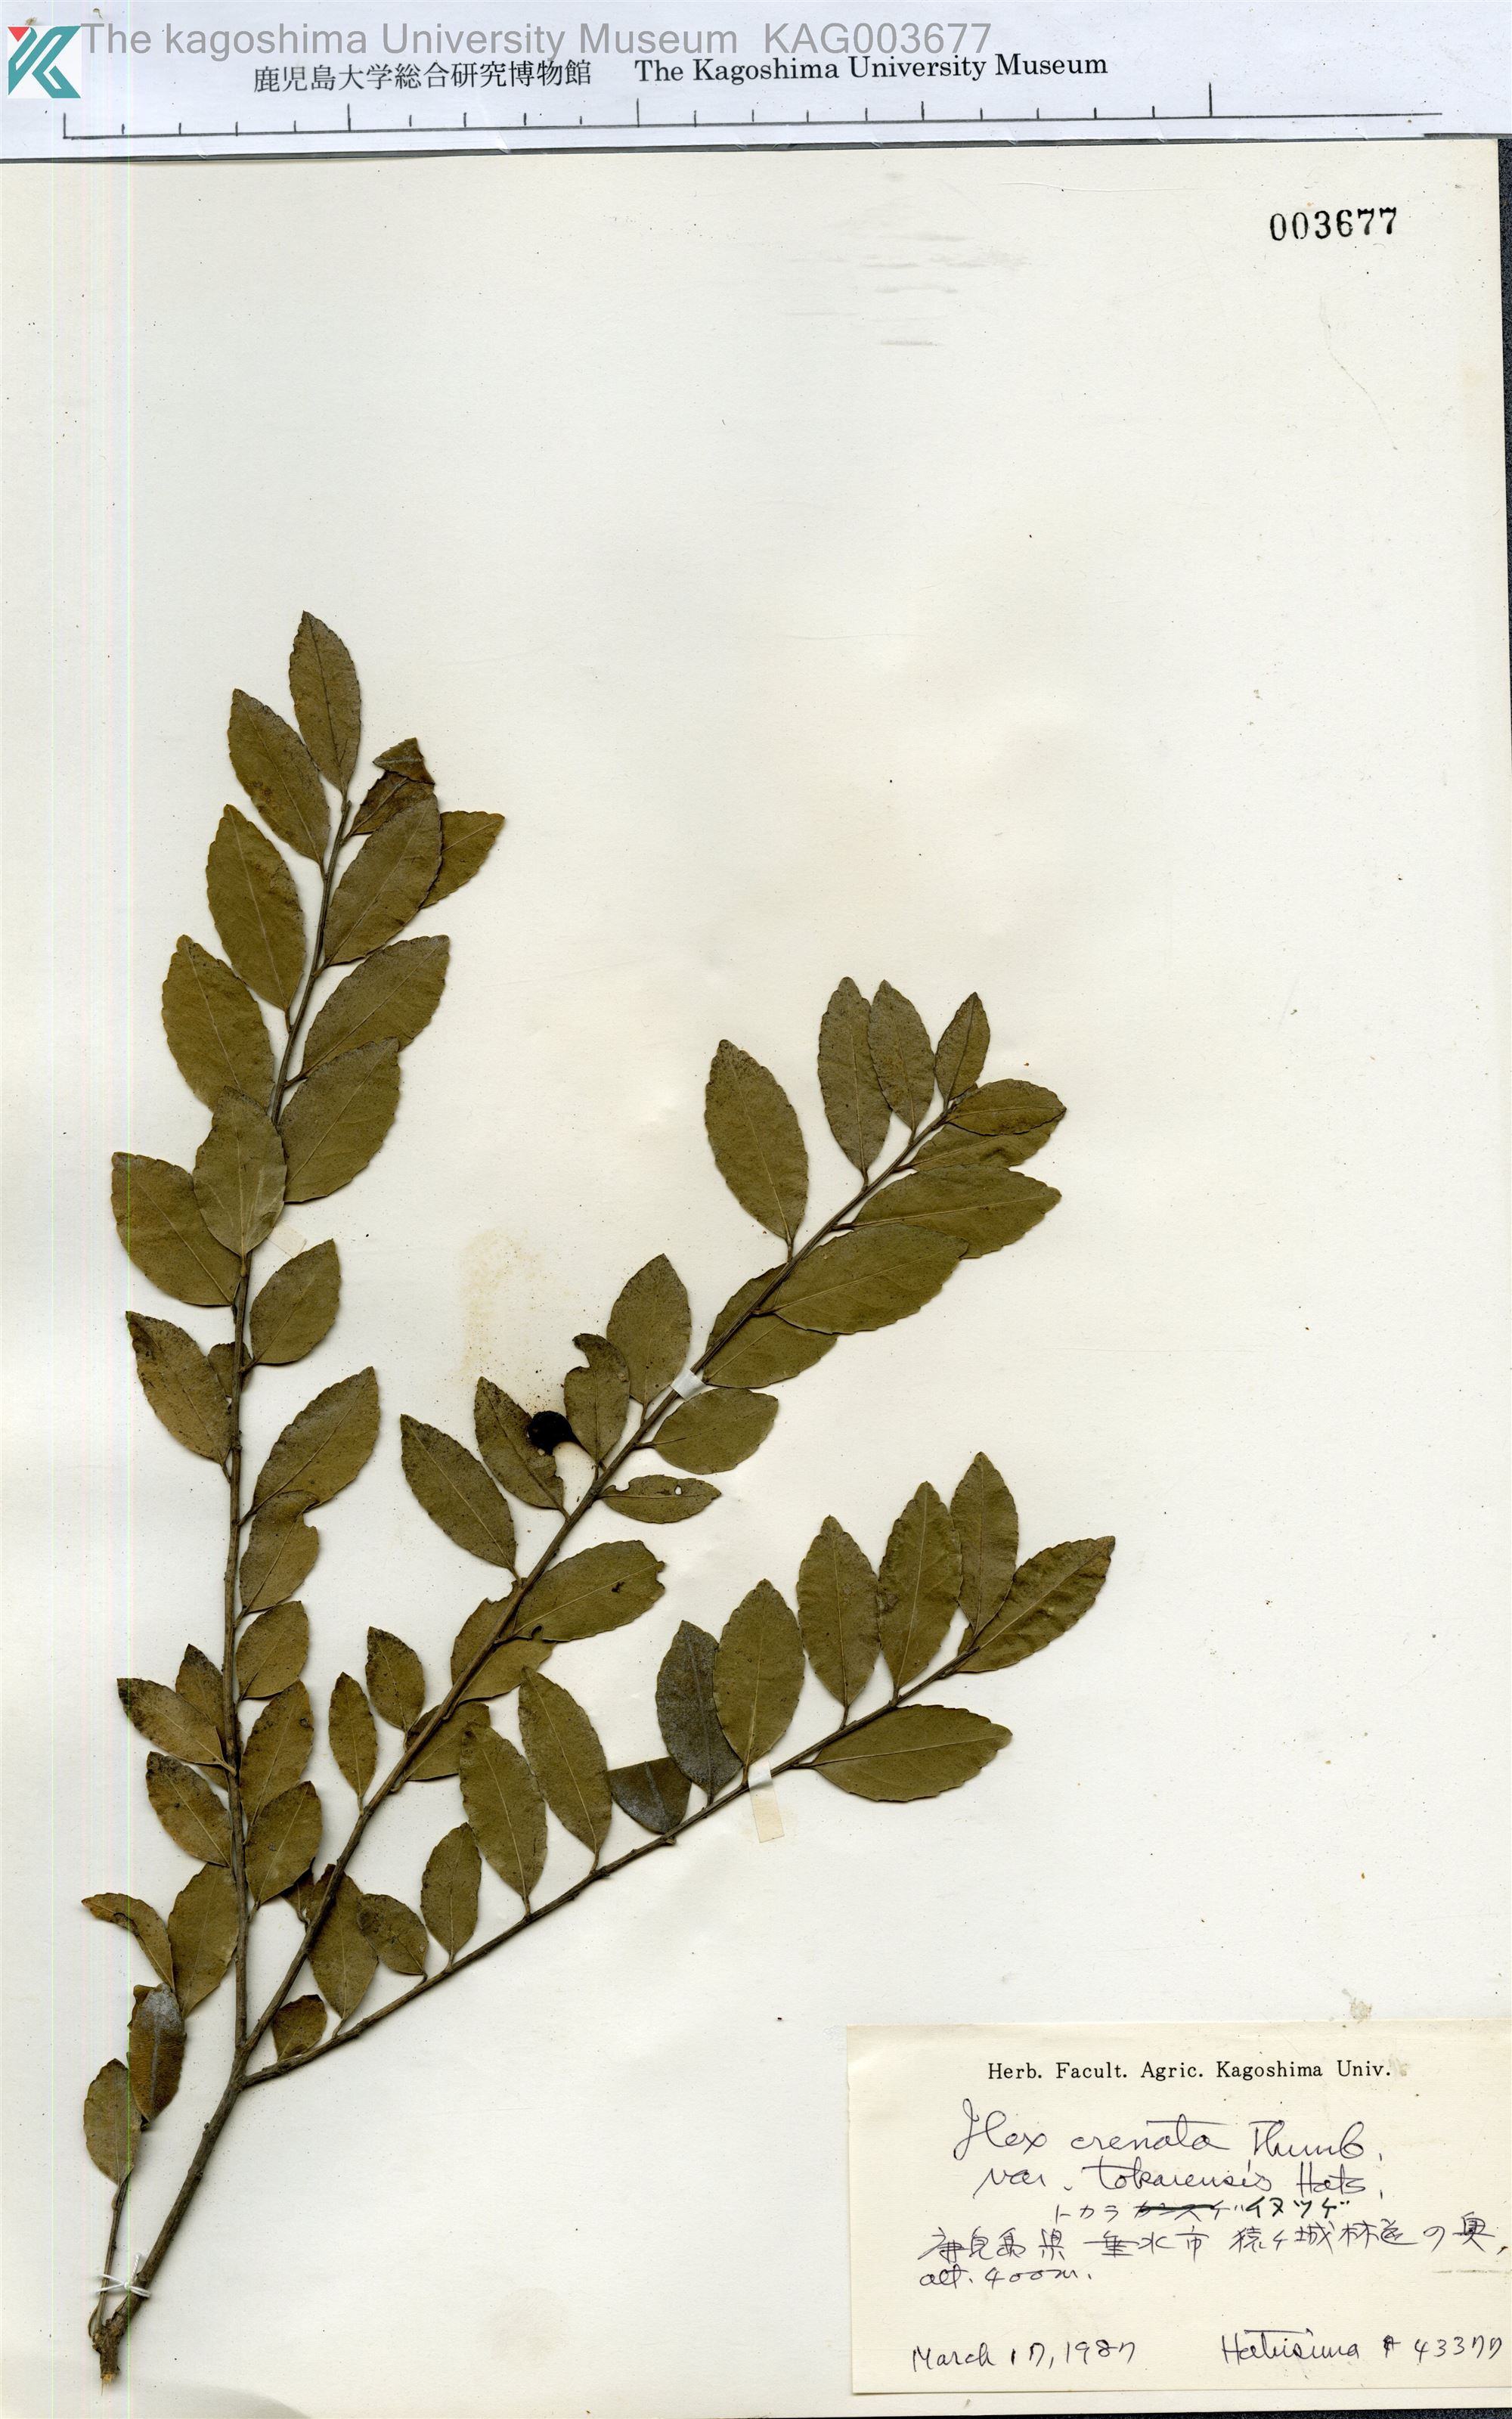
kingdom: Plantae
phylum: Tracheophyta
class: Magnoliopsida
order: Aquifoliales
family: Aquifoliaceae
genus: Ilex
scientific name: Ilex crenata
